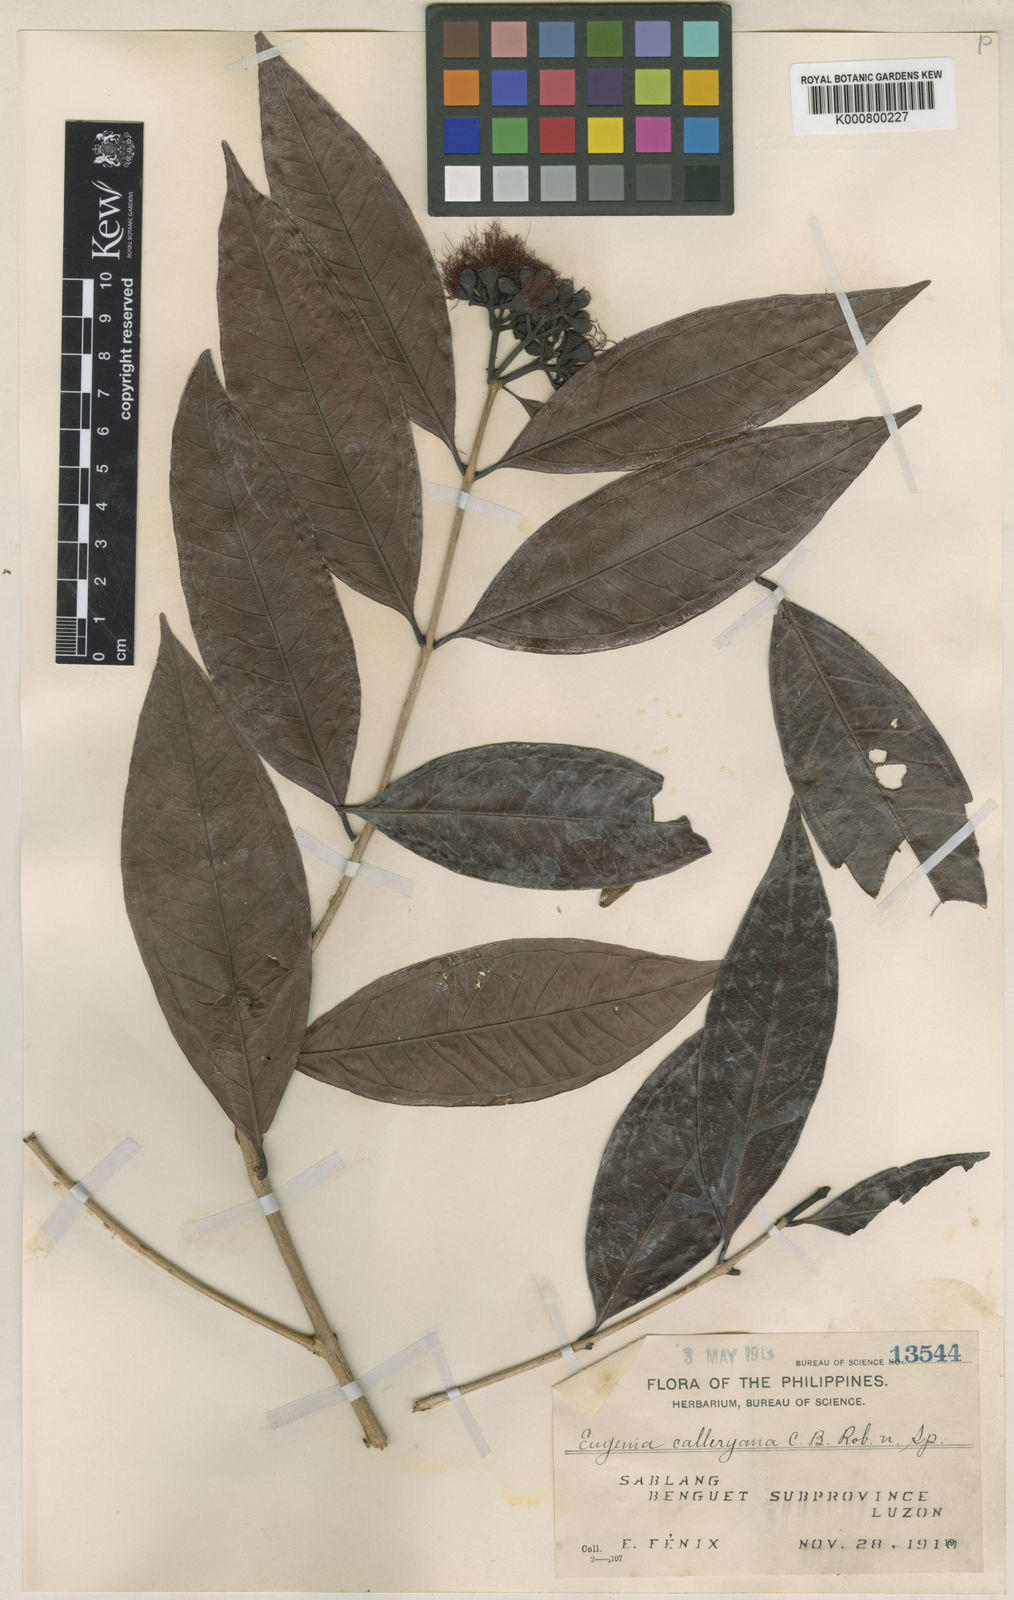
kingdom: Plantae
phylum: Tracheophyta
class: Magnoliopsida
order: Myrtales
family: Myrtaceae
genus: Syzygium
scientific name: Syzygium calleryanum
